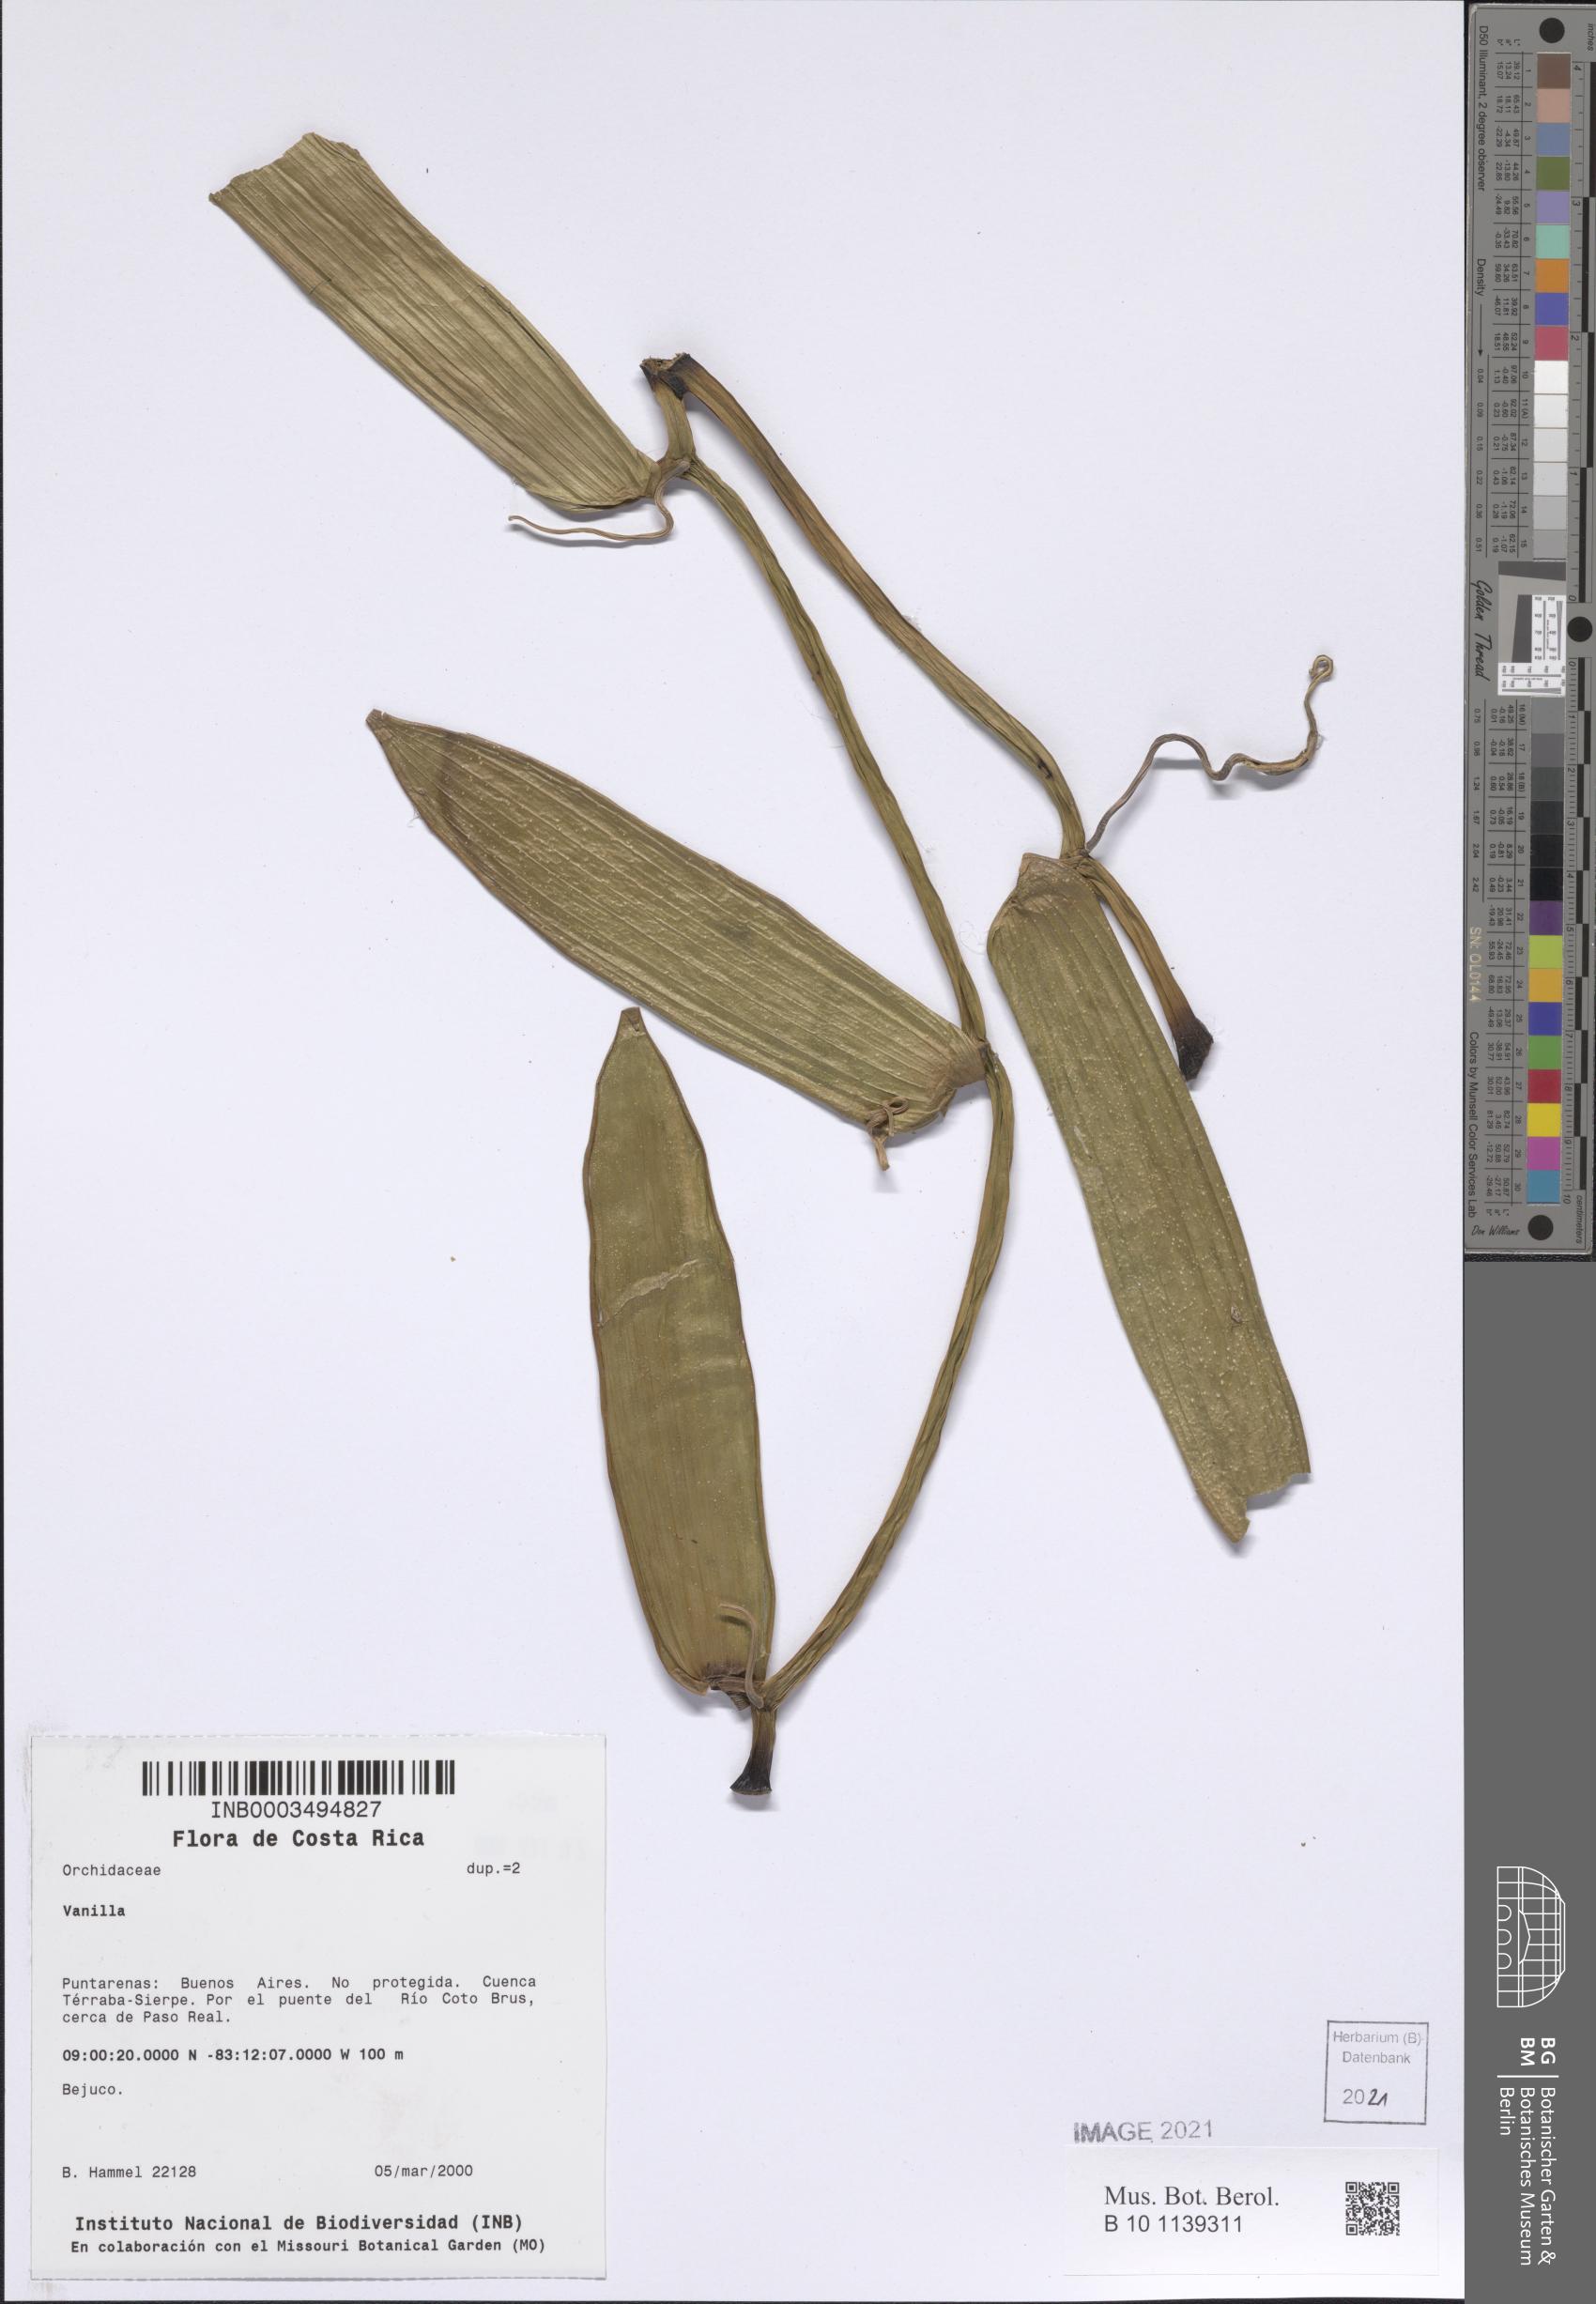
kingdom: Plantae
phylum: Tracheophyta
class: Liliopsida
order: Asparagales
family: Orchidaceae
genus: Vanilla
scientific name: Vanilla
